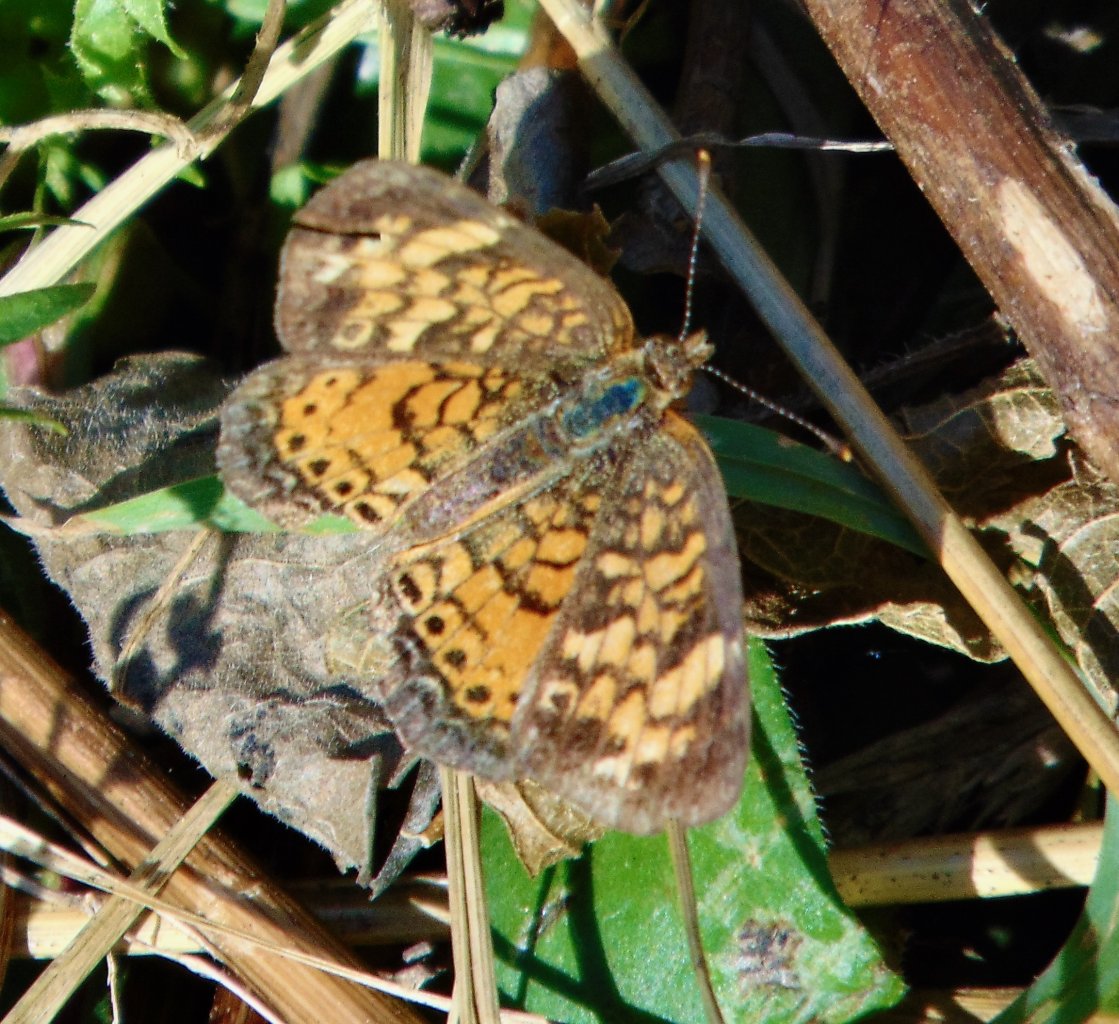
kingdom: Animalia
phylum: Arthropoda
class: Insecta
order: Lepidoptera
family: Nymphalidae
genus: Phyciodes
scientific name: Phyciodes tharos
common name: Pearl Crescent
